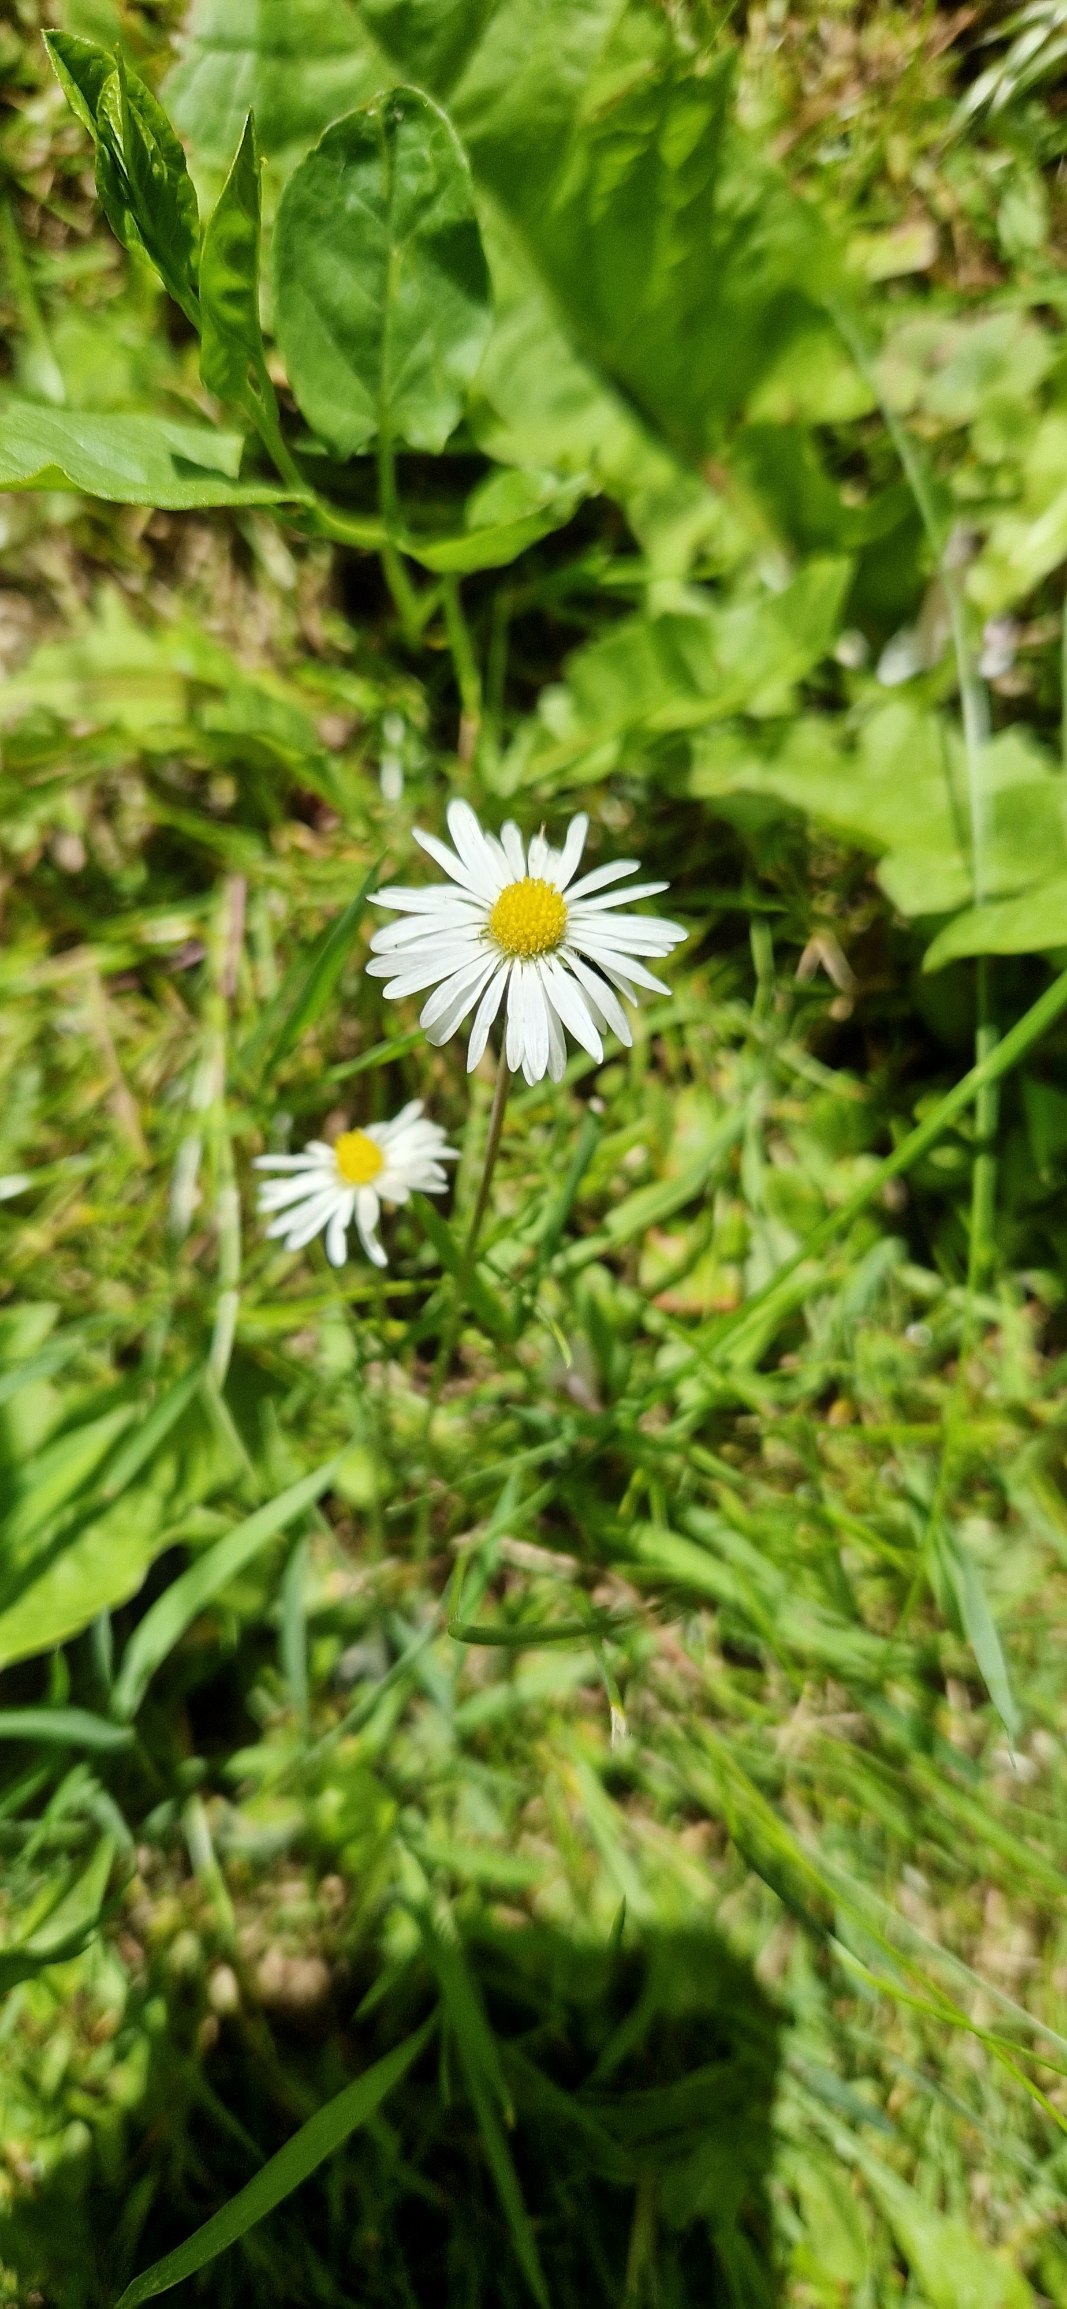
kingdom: Plantae
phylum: Tracheophyta
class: Magnoliopsida
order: Asterales
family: Asteraceae
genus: Bellis
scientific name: Bellis perennis
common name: Tusindfryd
